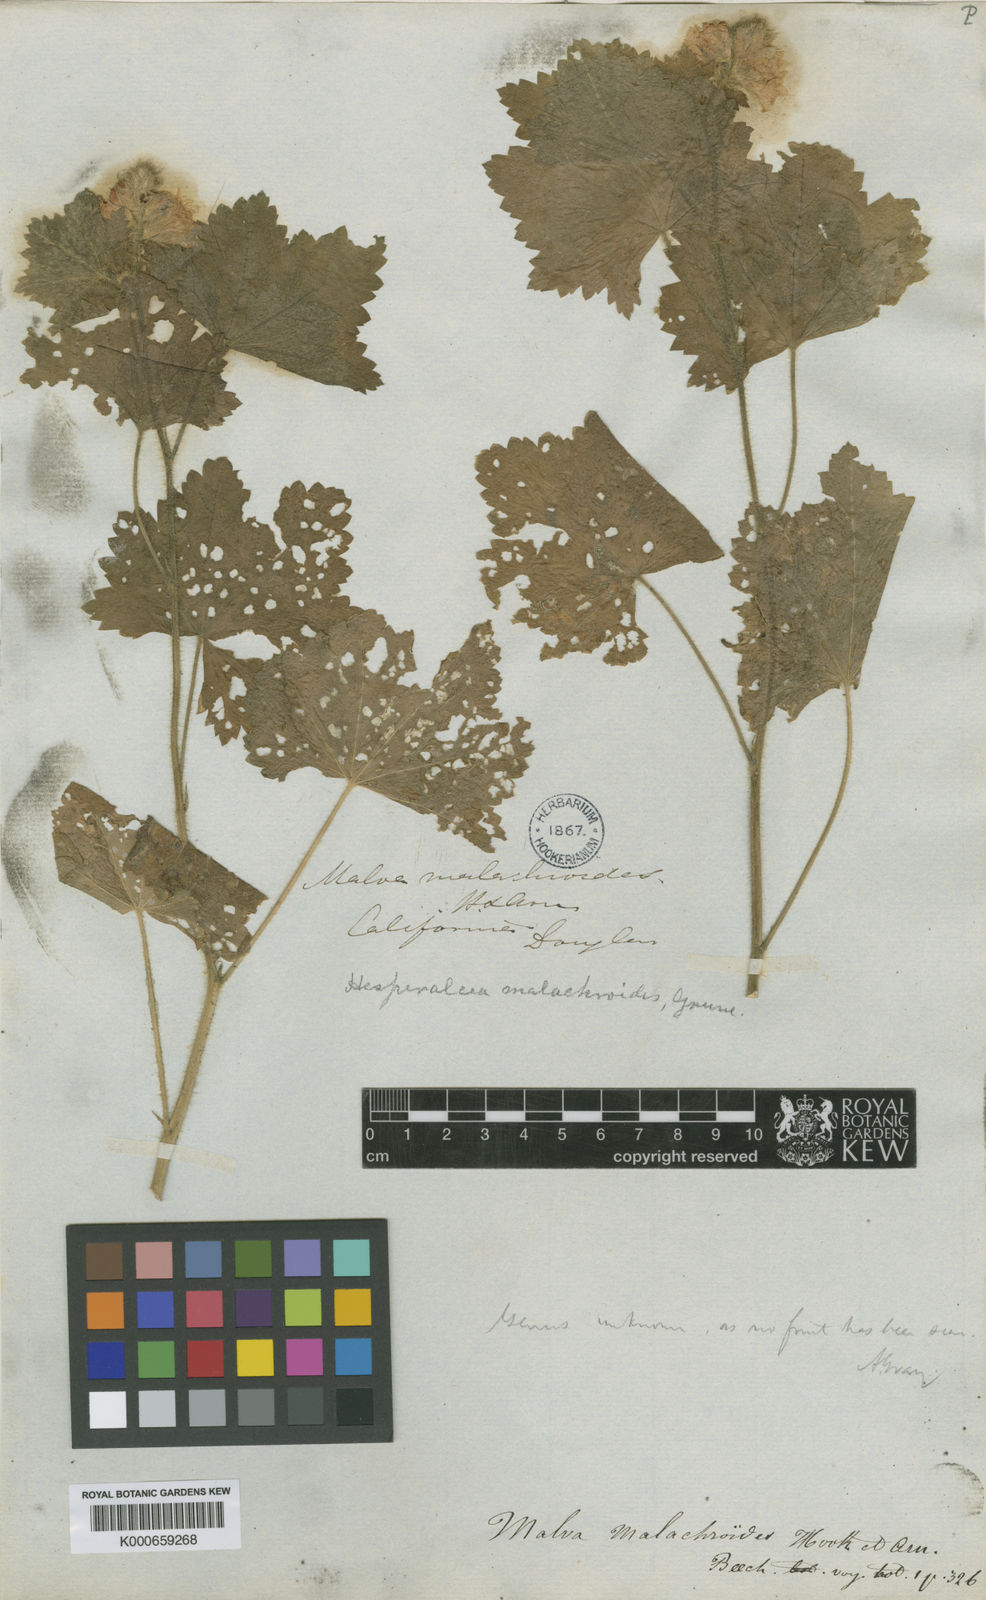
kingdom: Plantae
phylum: Tracheophyta
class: Magnoliopsida
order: Malvales
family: Malvaceae
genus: Sidalcea
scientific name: Sidalcea malachroides
